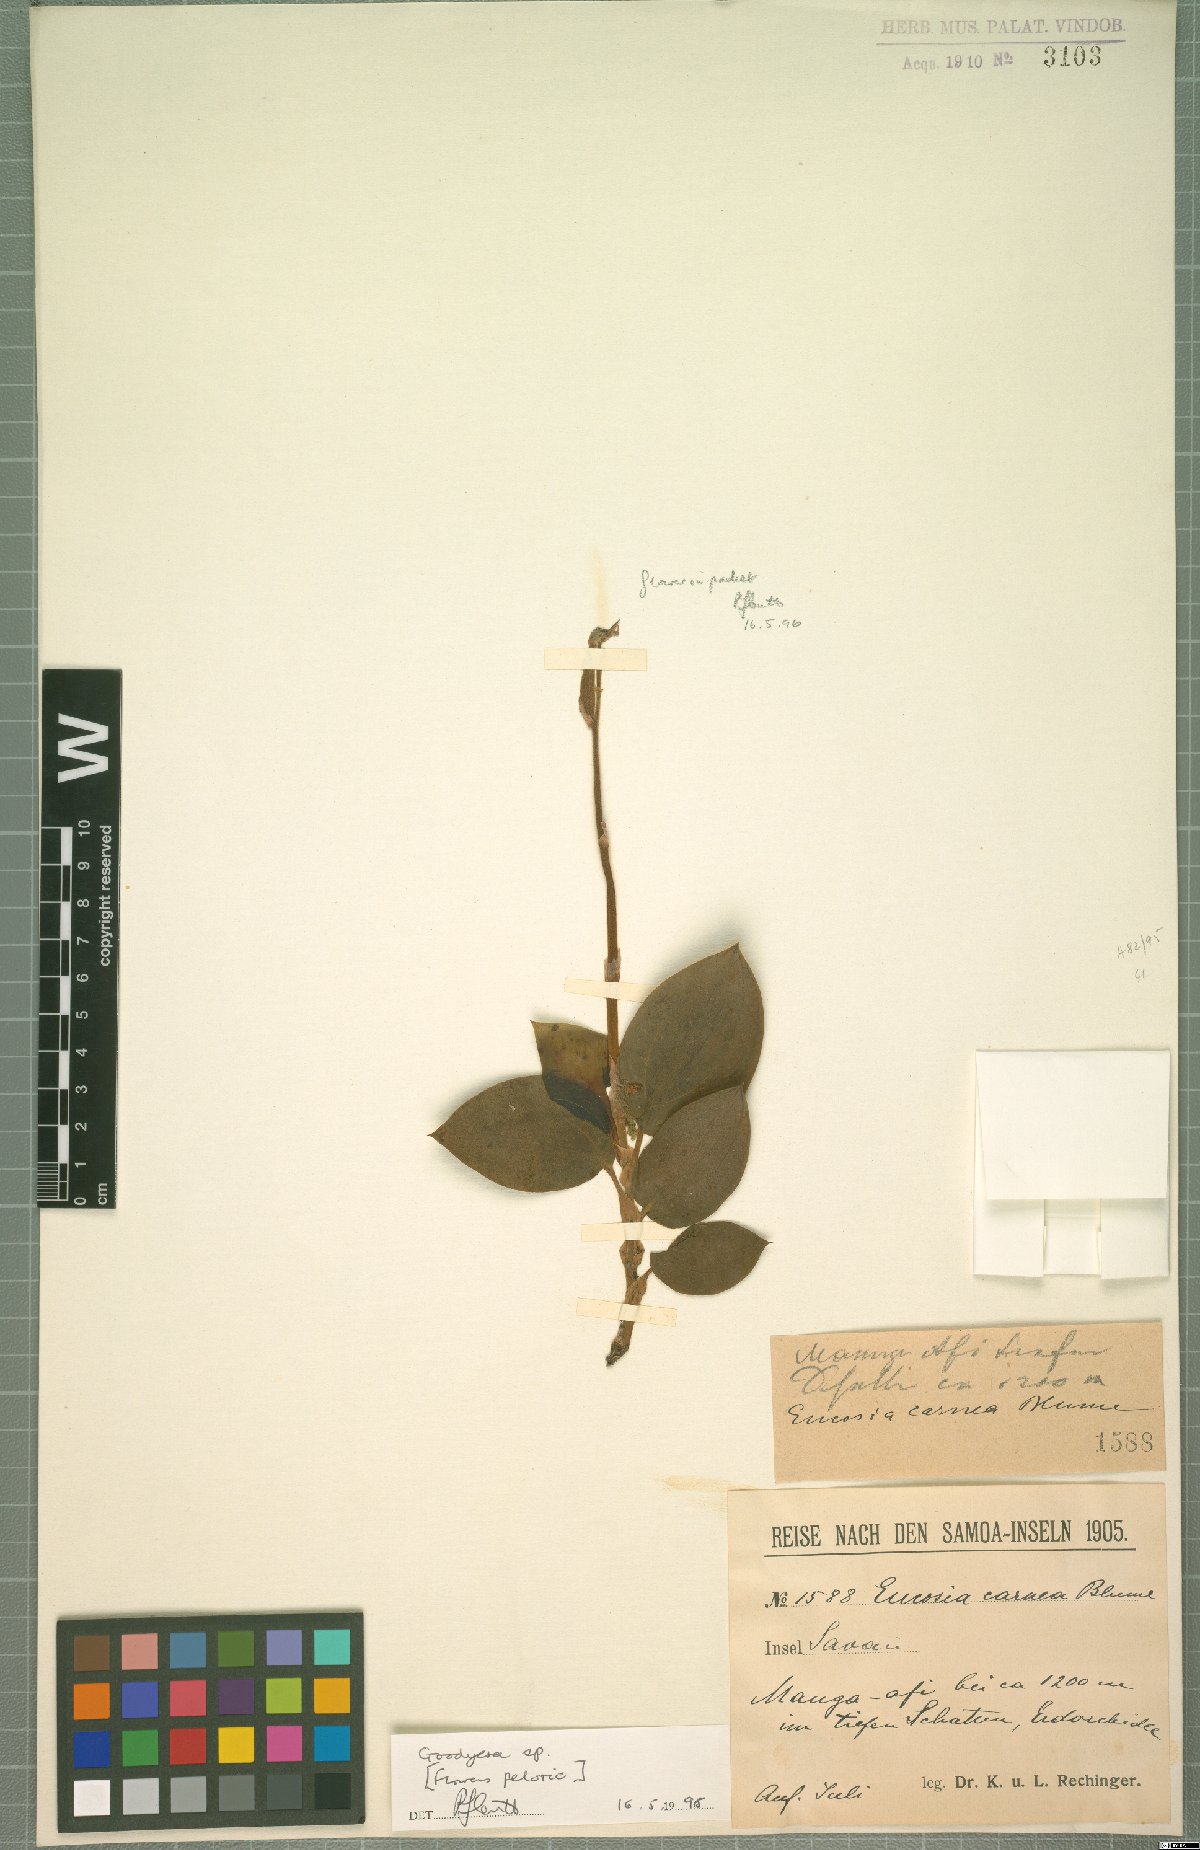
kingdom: Plantae
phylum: Tracheophyta
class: Liliopsida
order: Asparagales
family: Orchidaceae
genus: Goodyera
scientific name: Goodyera
